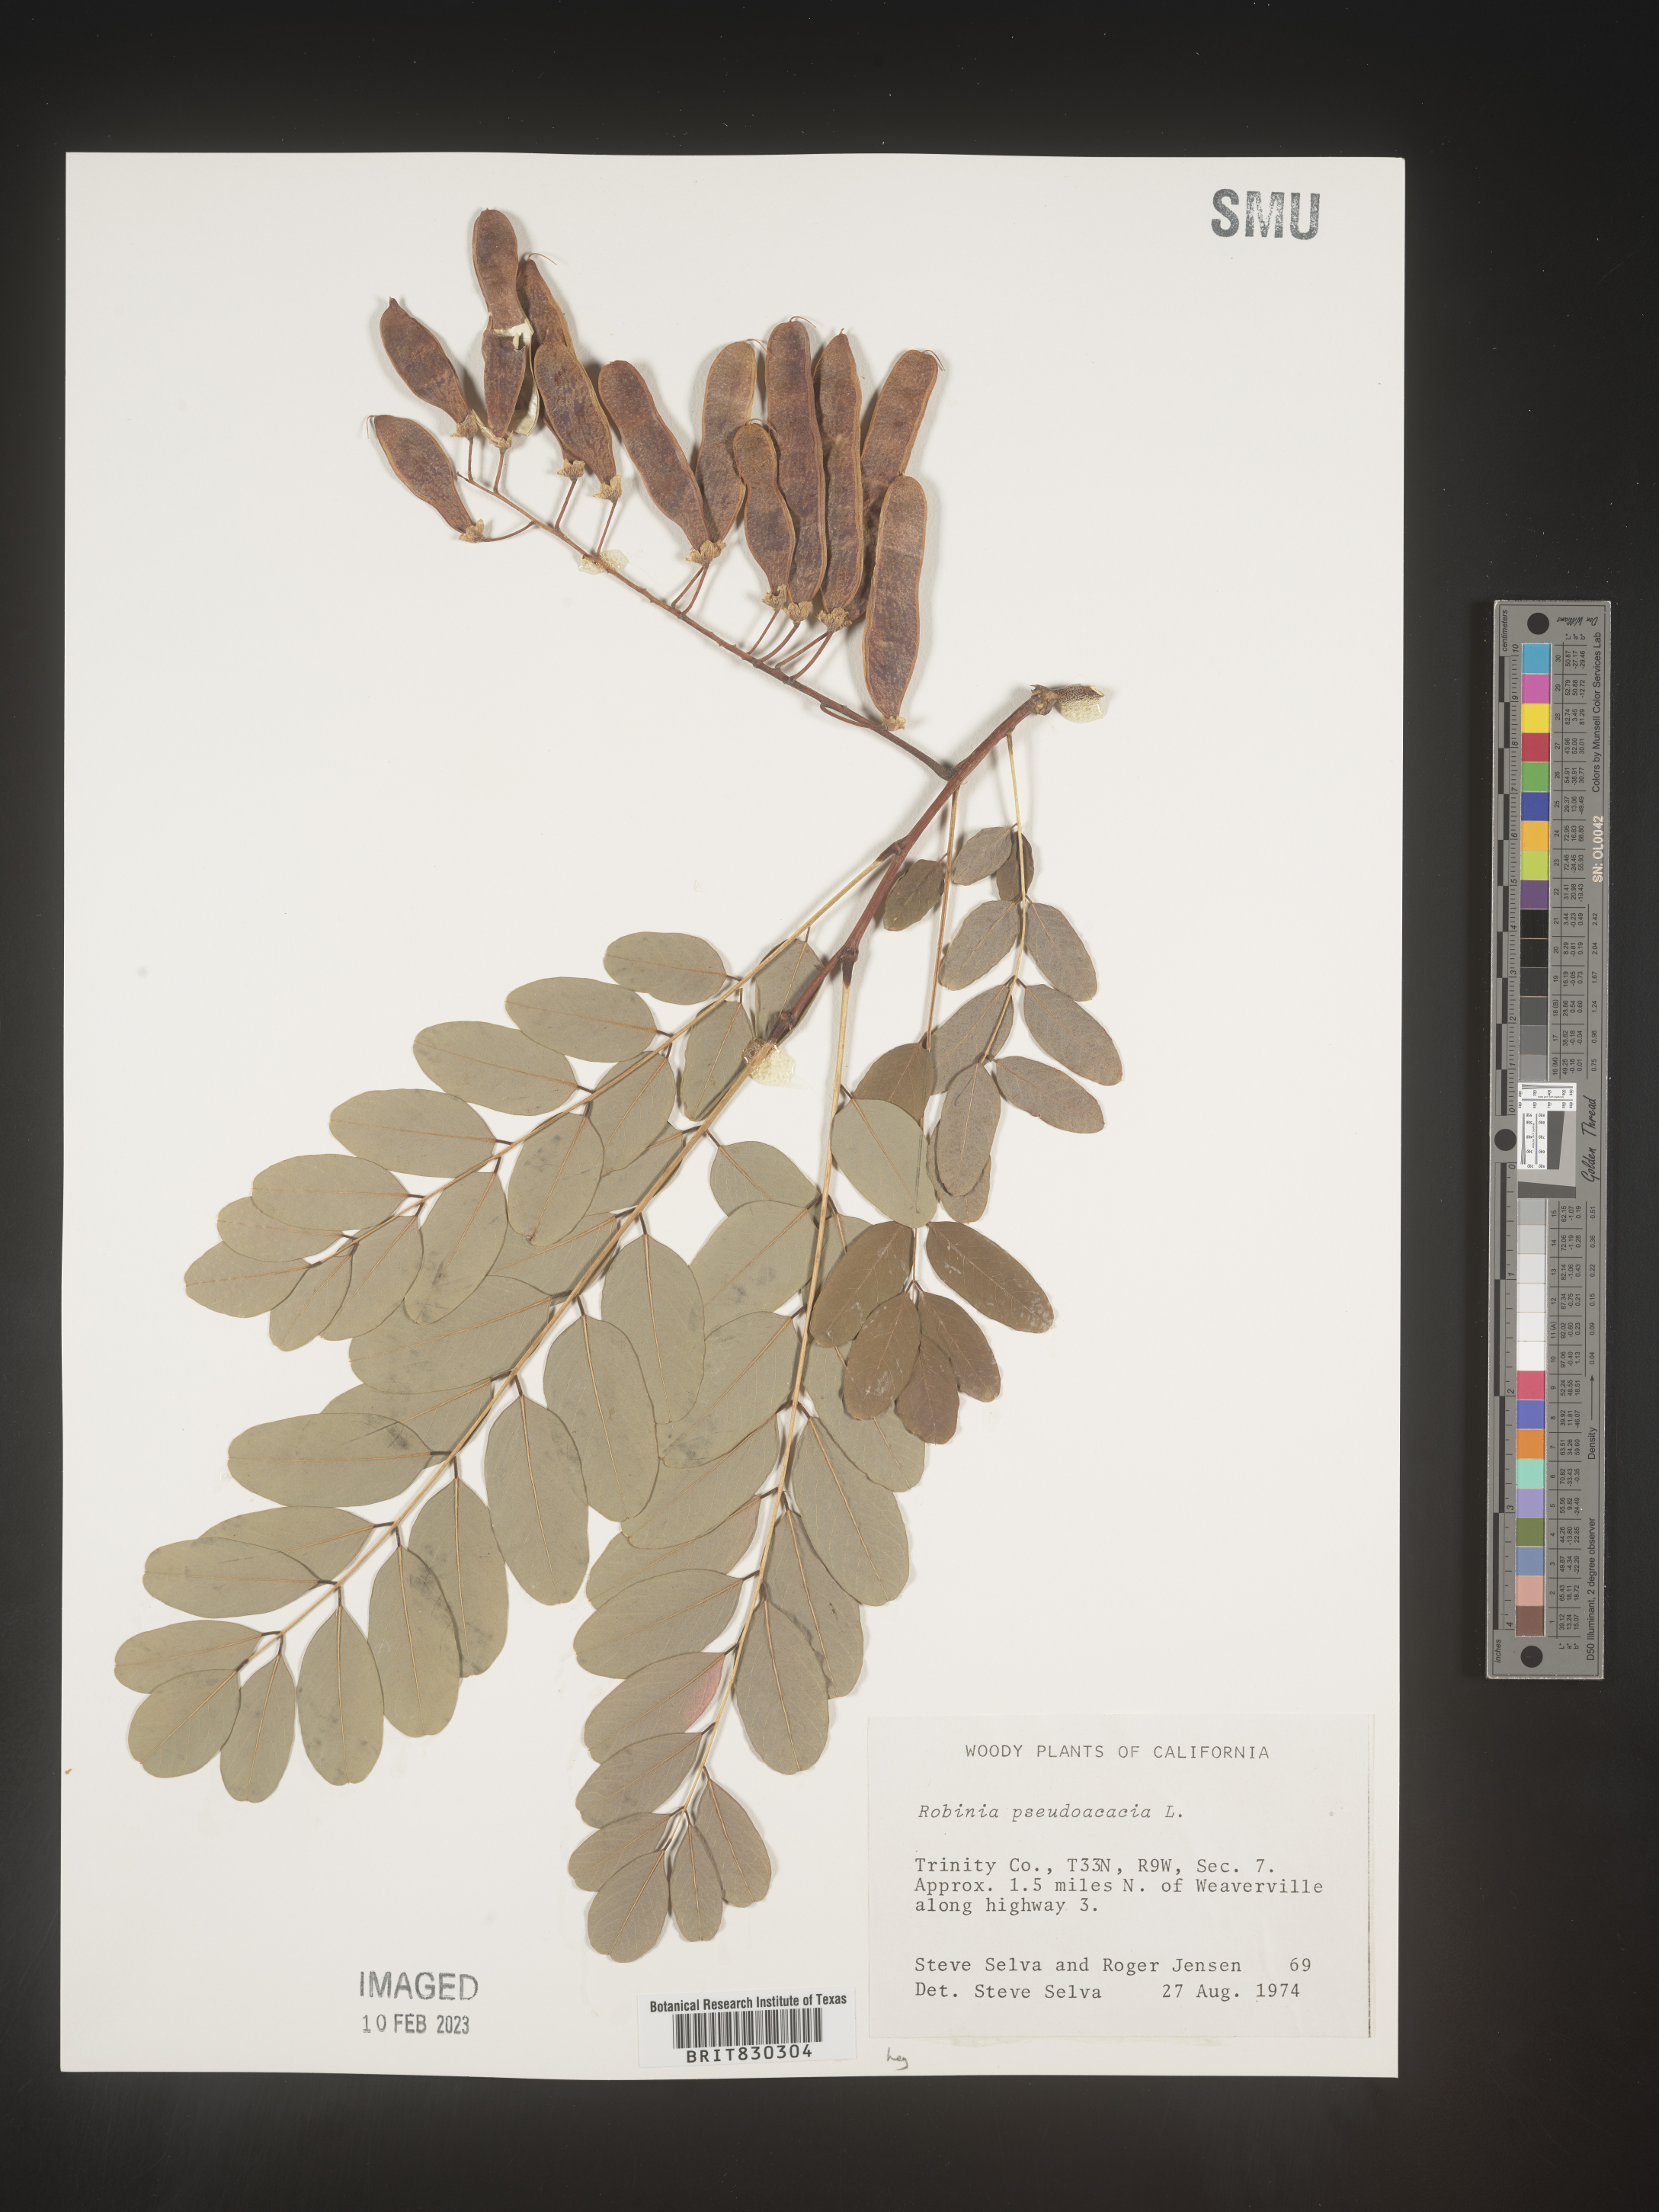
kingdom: Plantae
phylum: Tracheophyta
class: Magnoliopsida
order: Fabales
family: Fabaceae
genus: Robinia
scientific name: Robinia pseudoacacia
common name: Black locust
